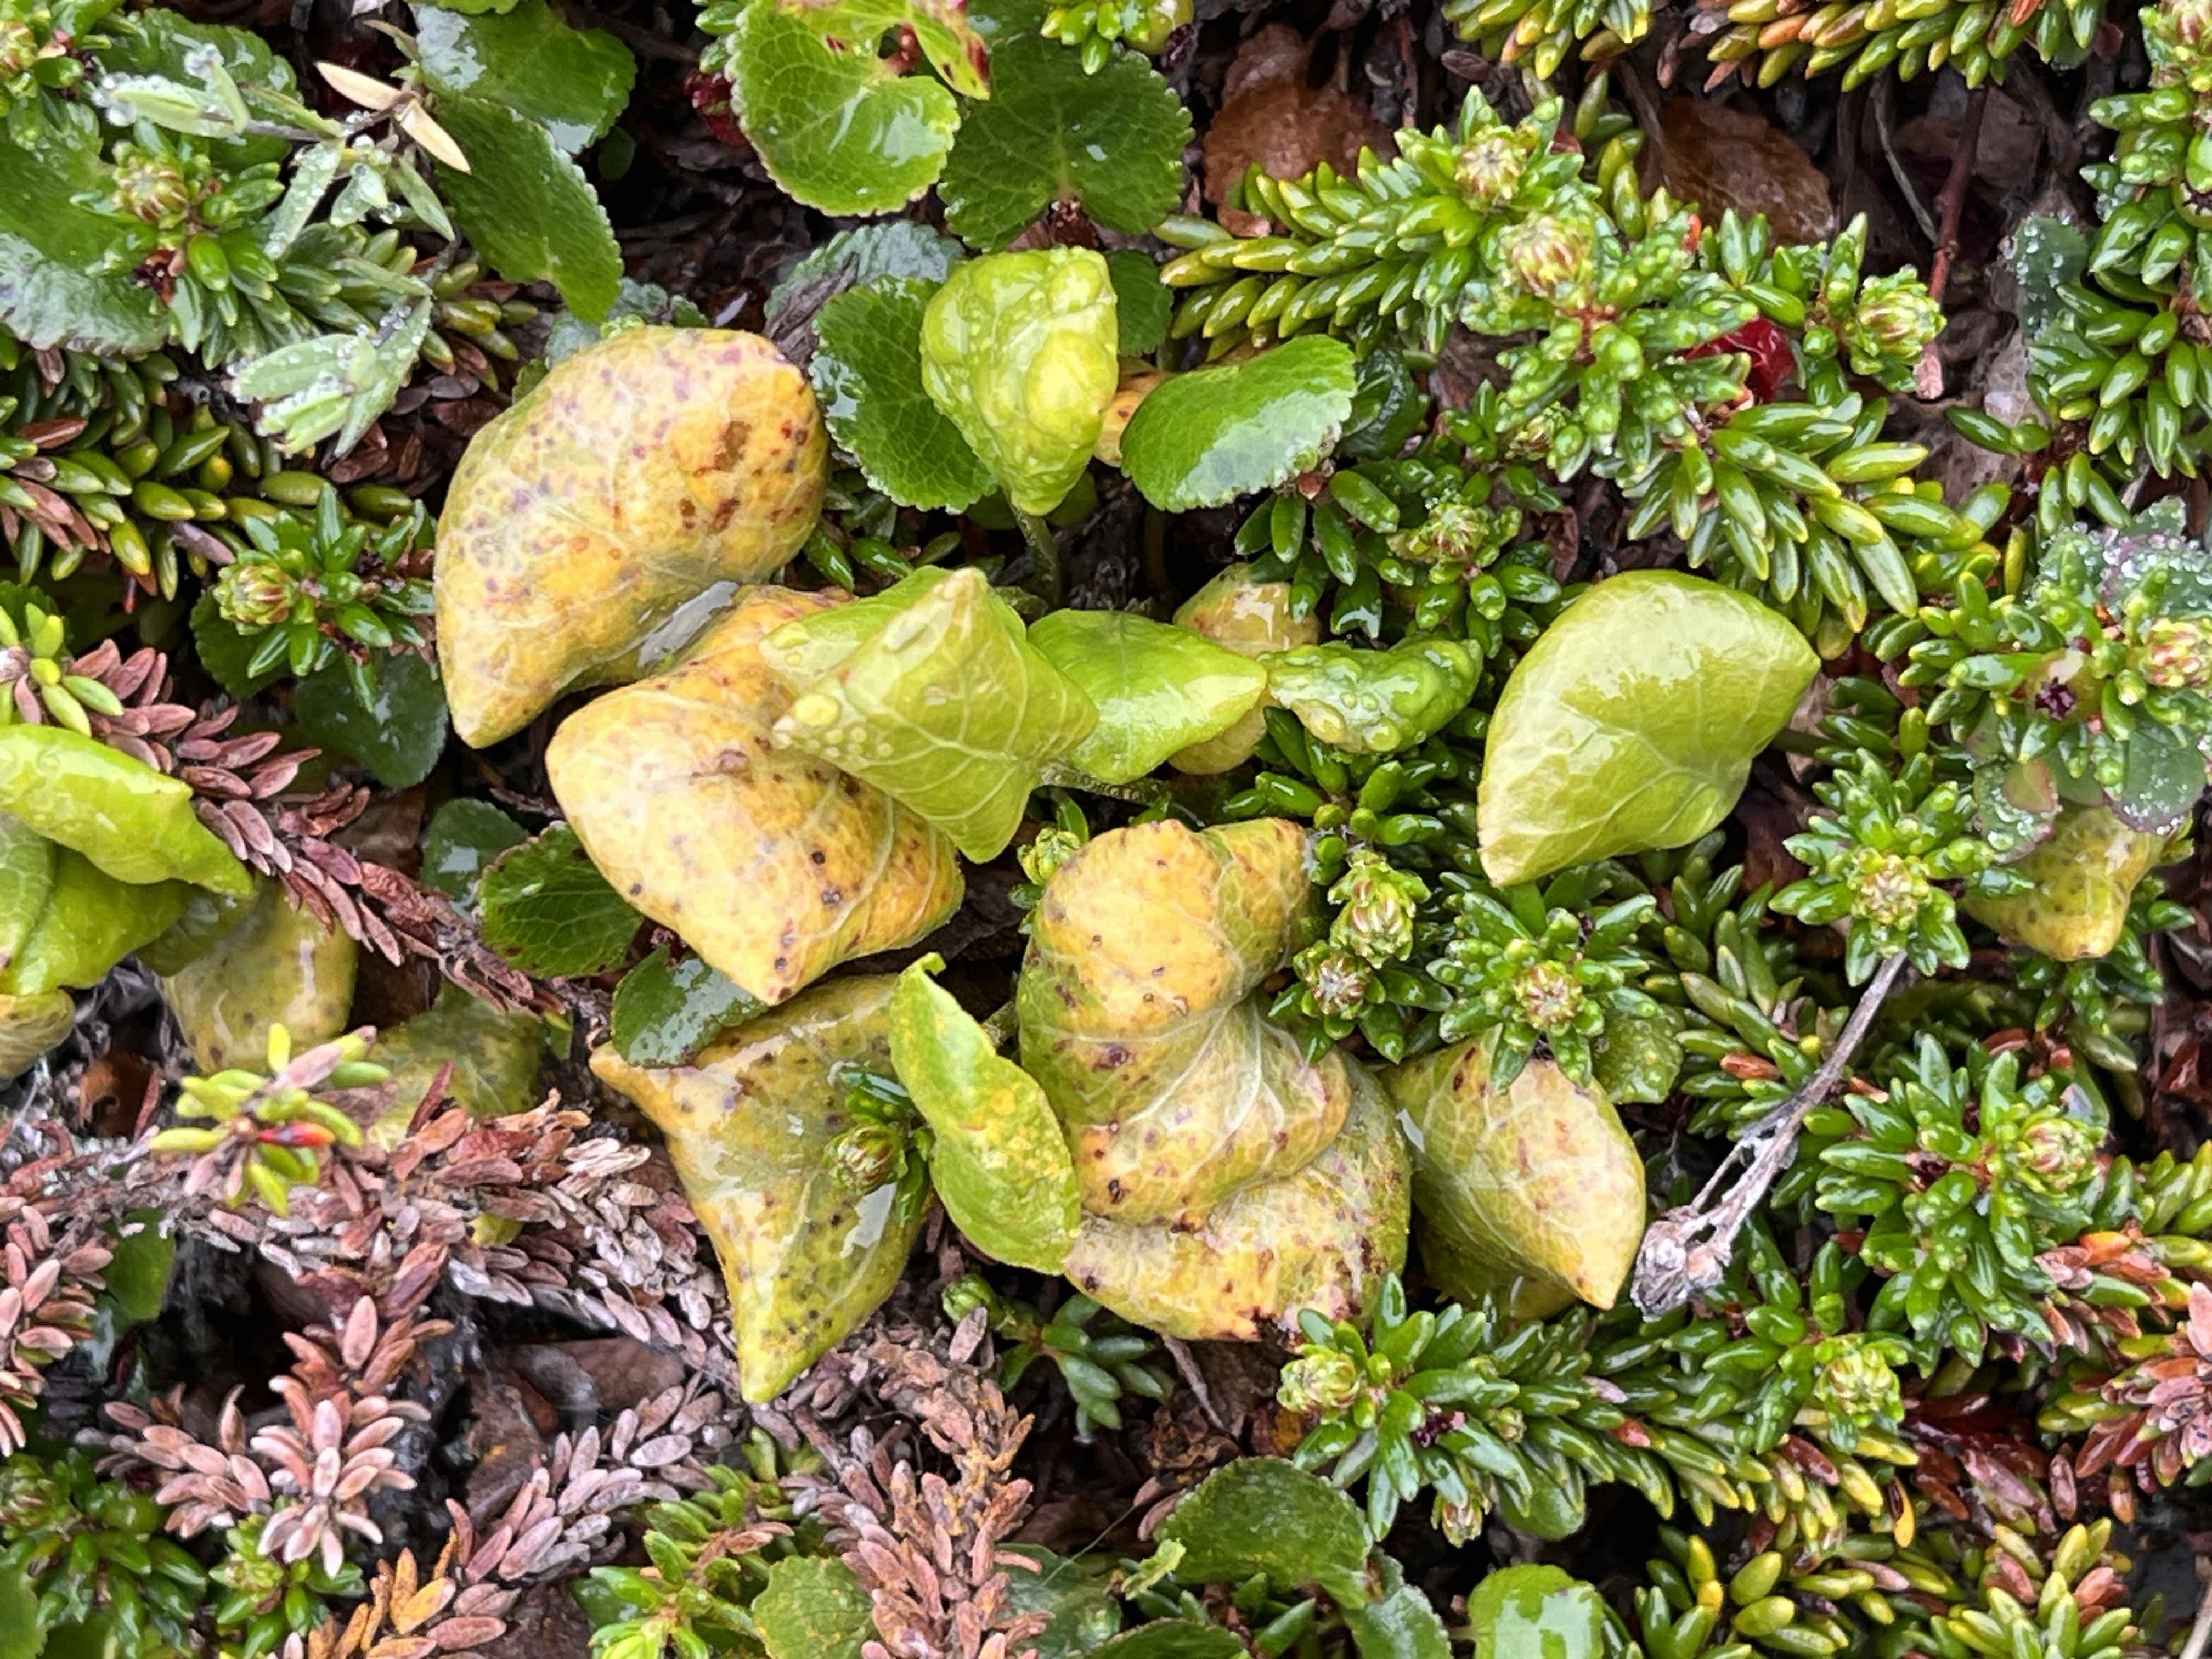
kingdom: Fungi
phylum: Basidiomycota
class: Pucciniomycetes
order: Pucciniales
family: Pucciniastraceae
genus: Pucciniastrum
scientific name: Pucciniastrum pyrolae
